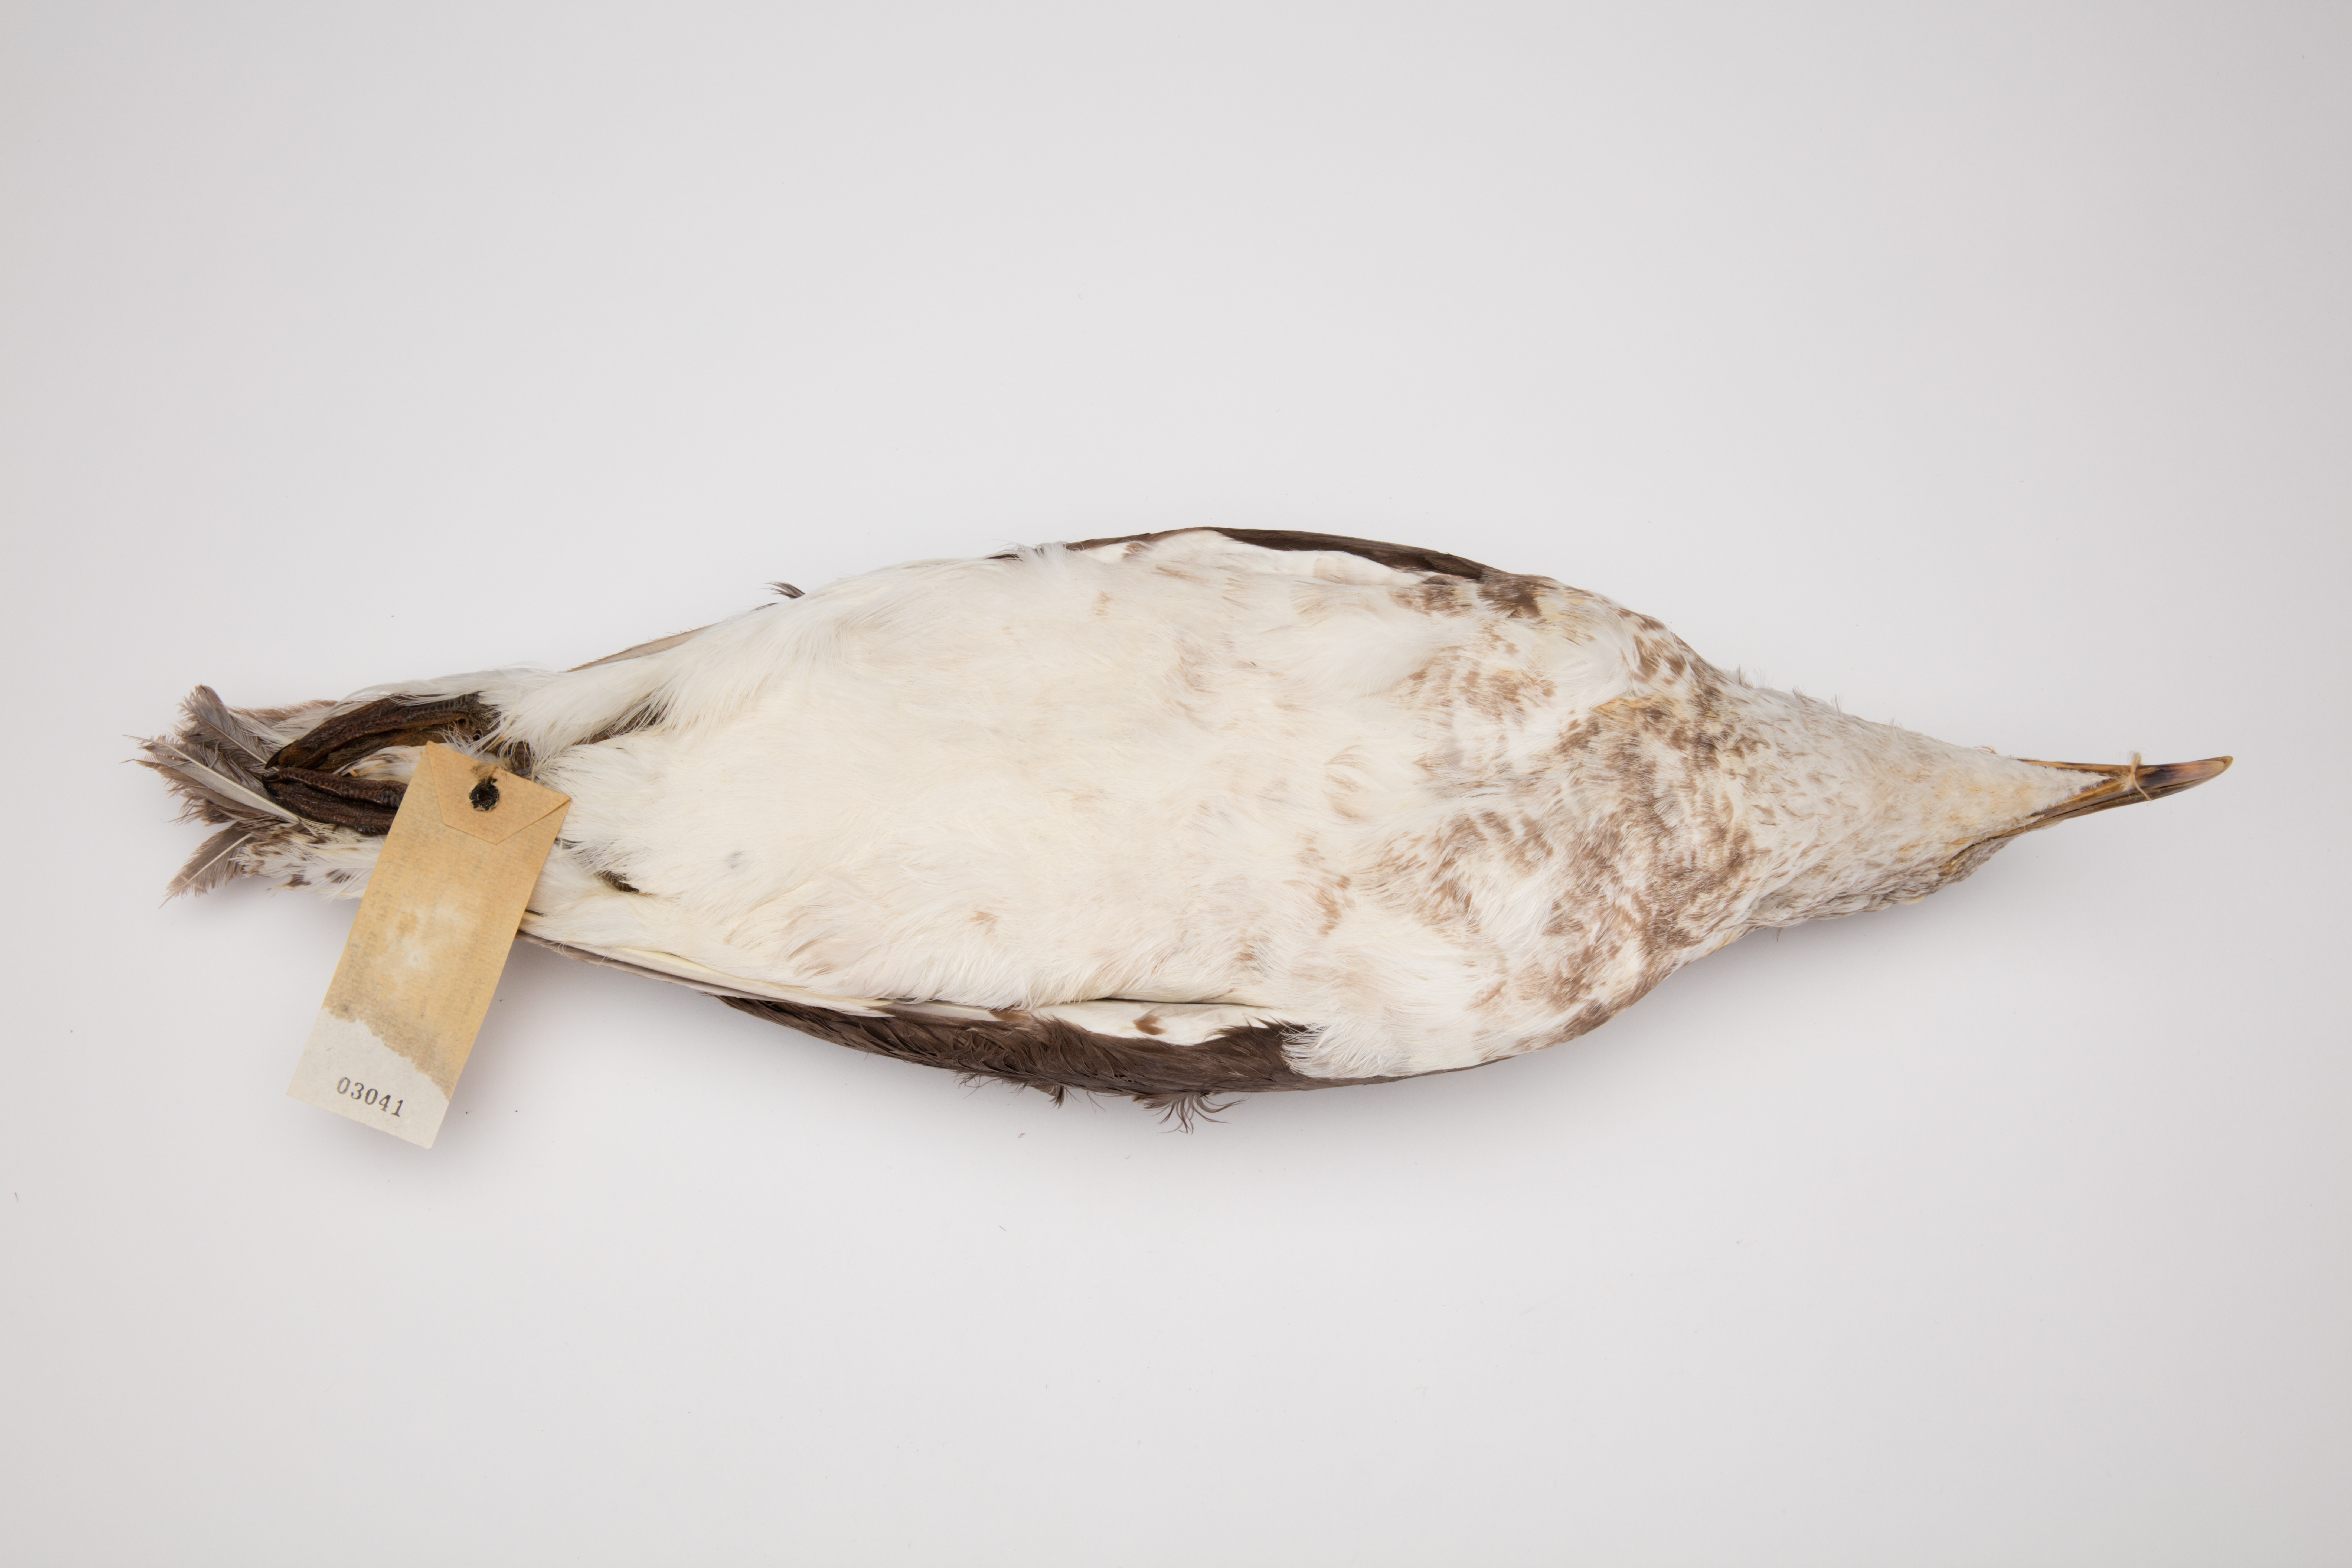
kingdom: Animalia
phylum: Chordata
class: Aves
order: Charadriiformes
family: Laridae
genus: Larus
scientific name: Larus dominicanus
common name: Kelp gull
